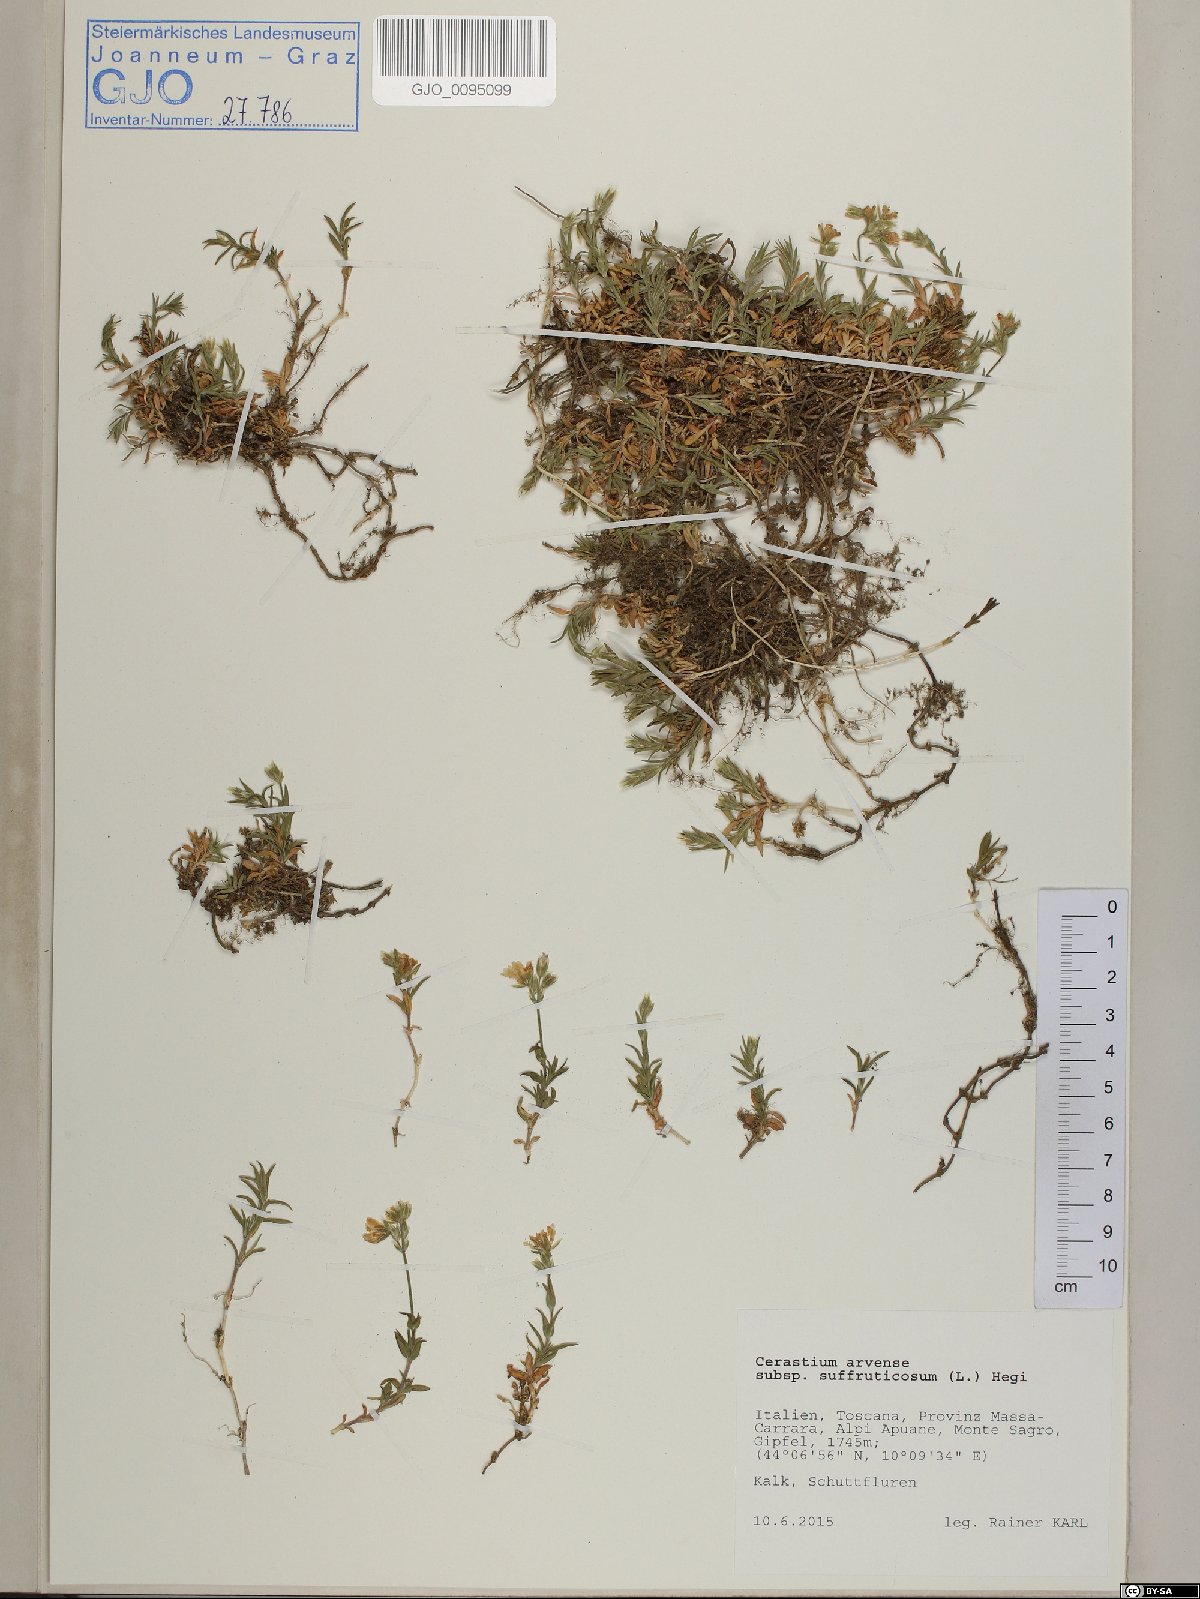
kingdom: Plantae
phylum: Tracheophyta
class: Magnoliopsida
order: Caryophyllales
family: Caryophyllaceae
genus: Cerastium
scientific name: Cerastium arvense
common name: Field mouse-ear
